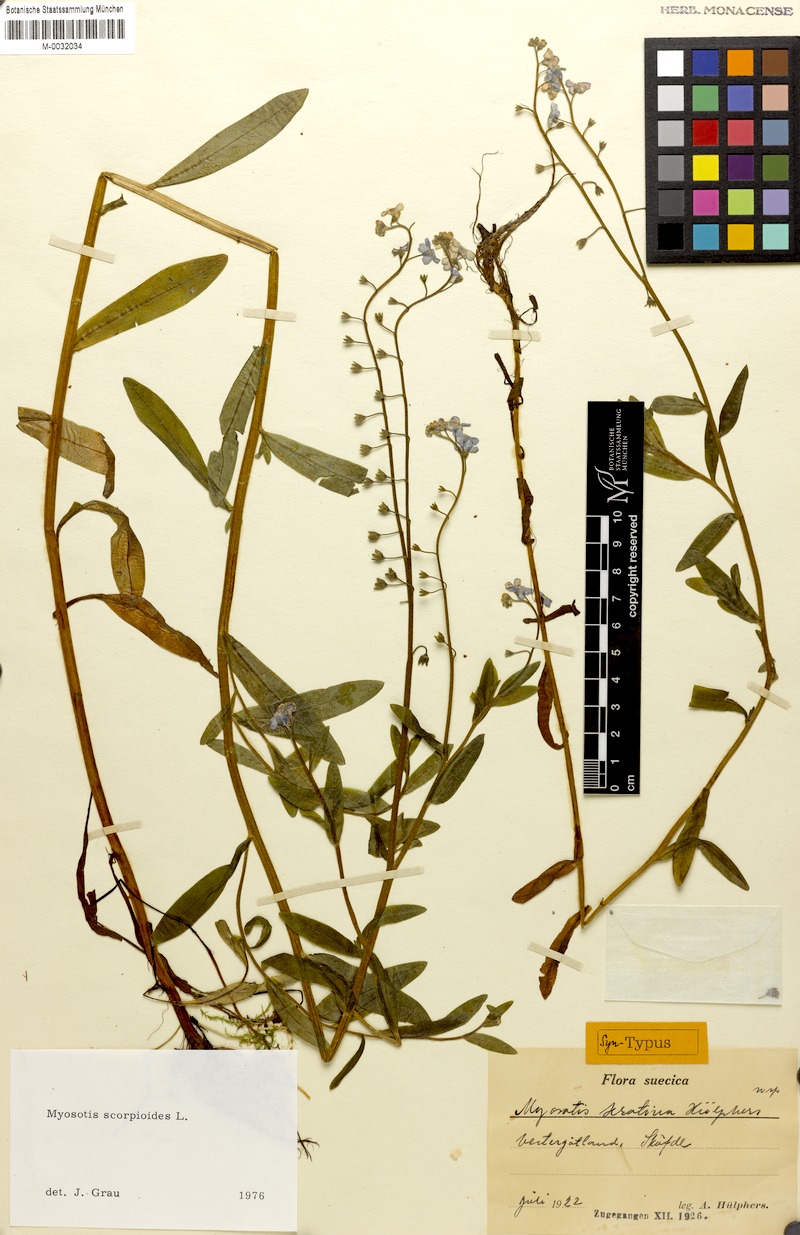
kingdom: Plantae
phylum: Tracheophyta
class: Magnoliopsida
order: Boraginales
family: Boraginaceae
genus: Myosotis
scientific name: Myosotis scorpioides
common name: Water forget-me-not
